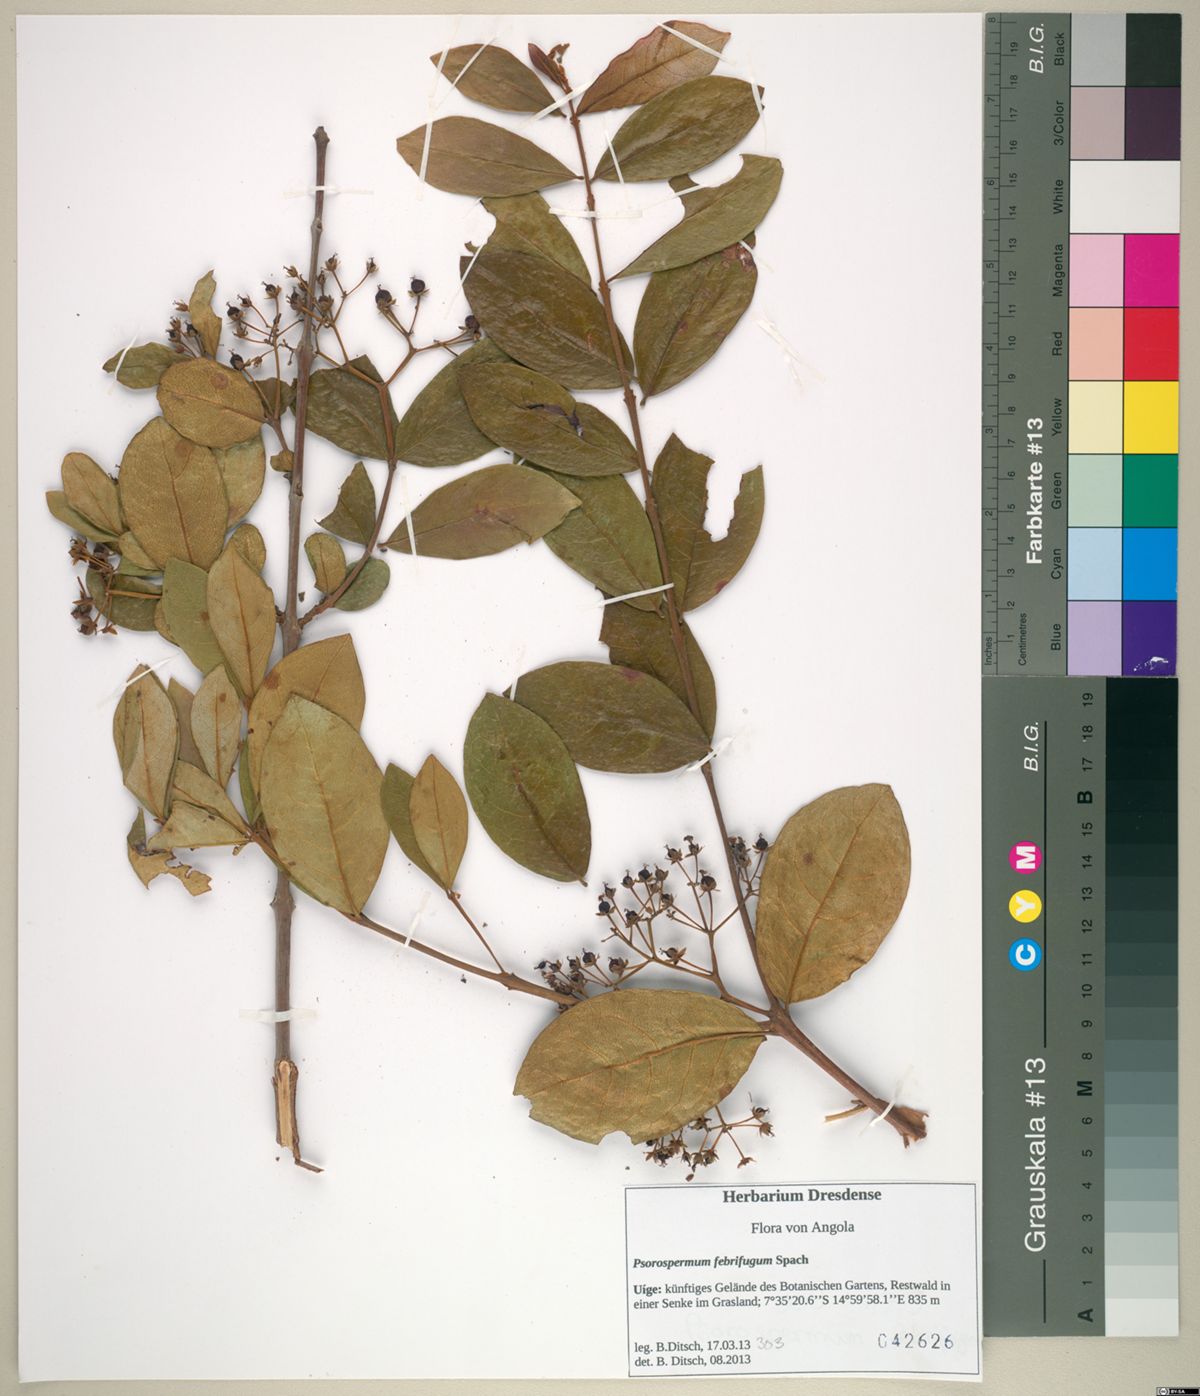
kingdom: Plantae
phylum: Tracheophyta
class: Magnoliopsida
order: Malpighiales
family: Hypericaceae
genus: Psorospermum
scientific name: Psorospermum febrifugum
